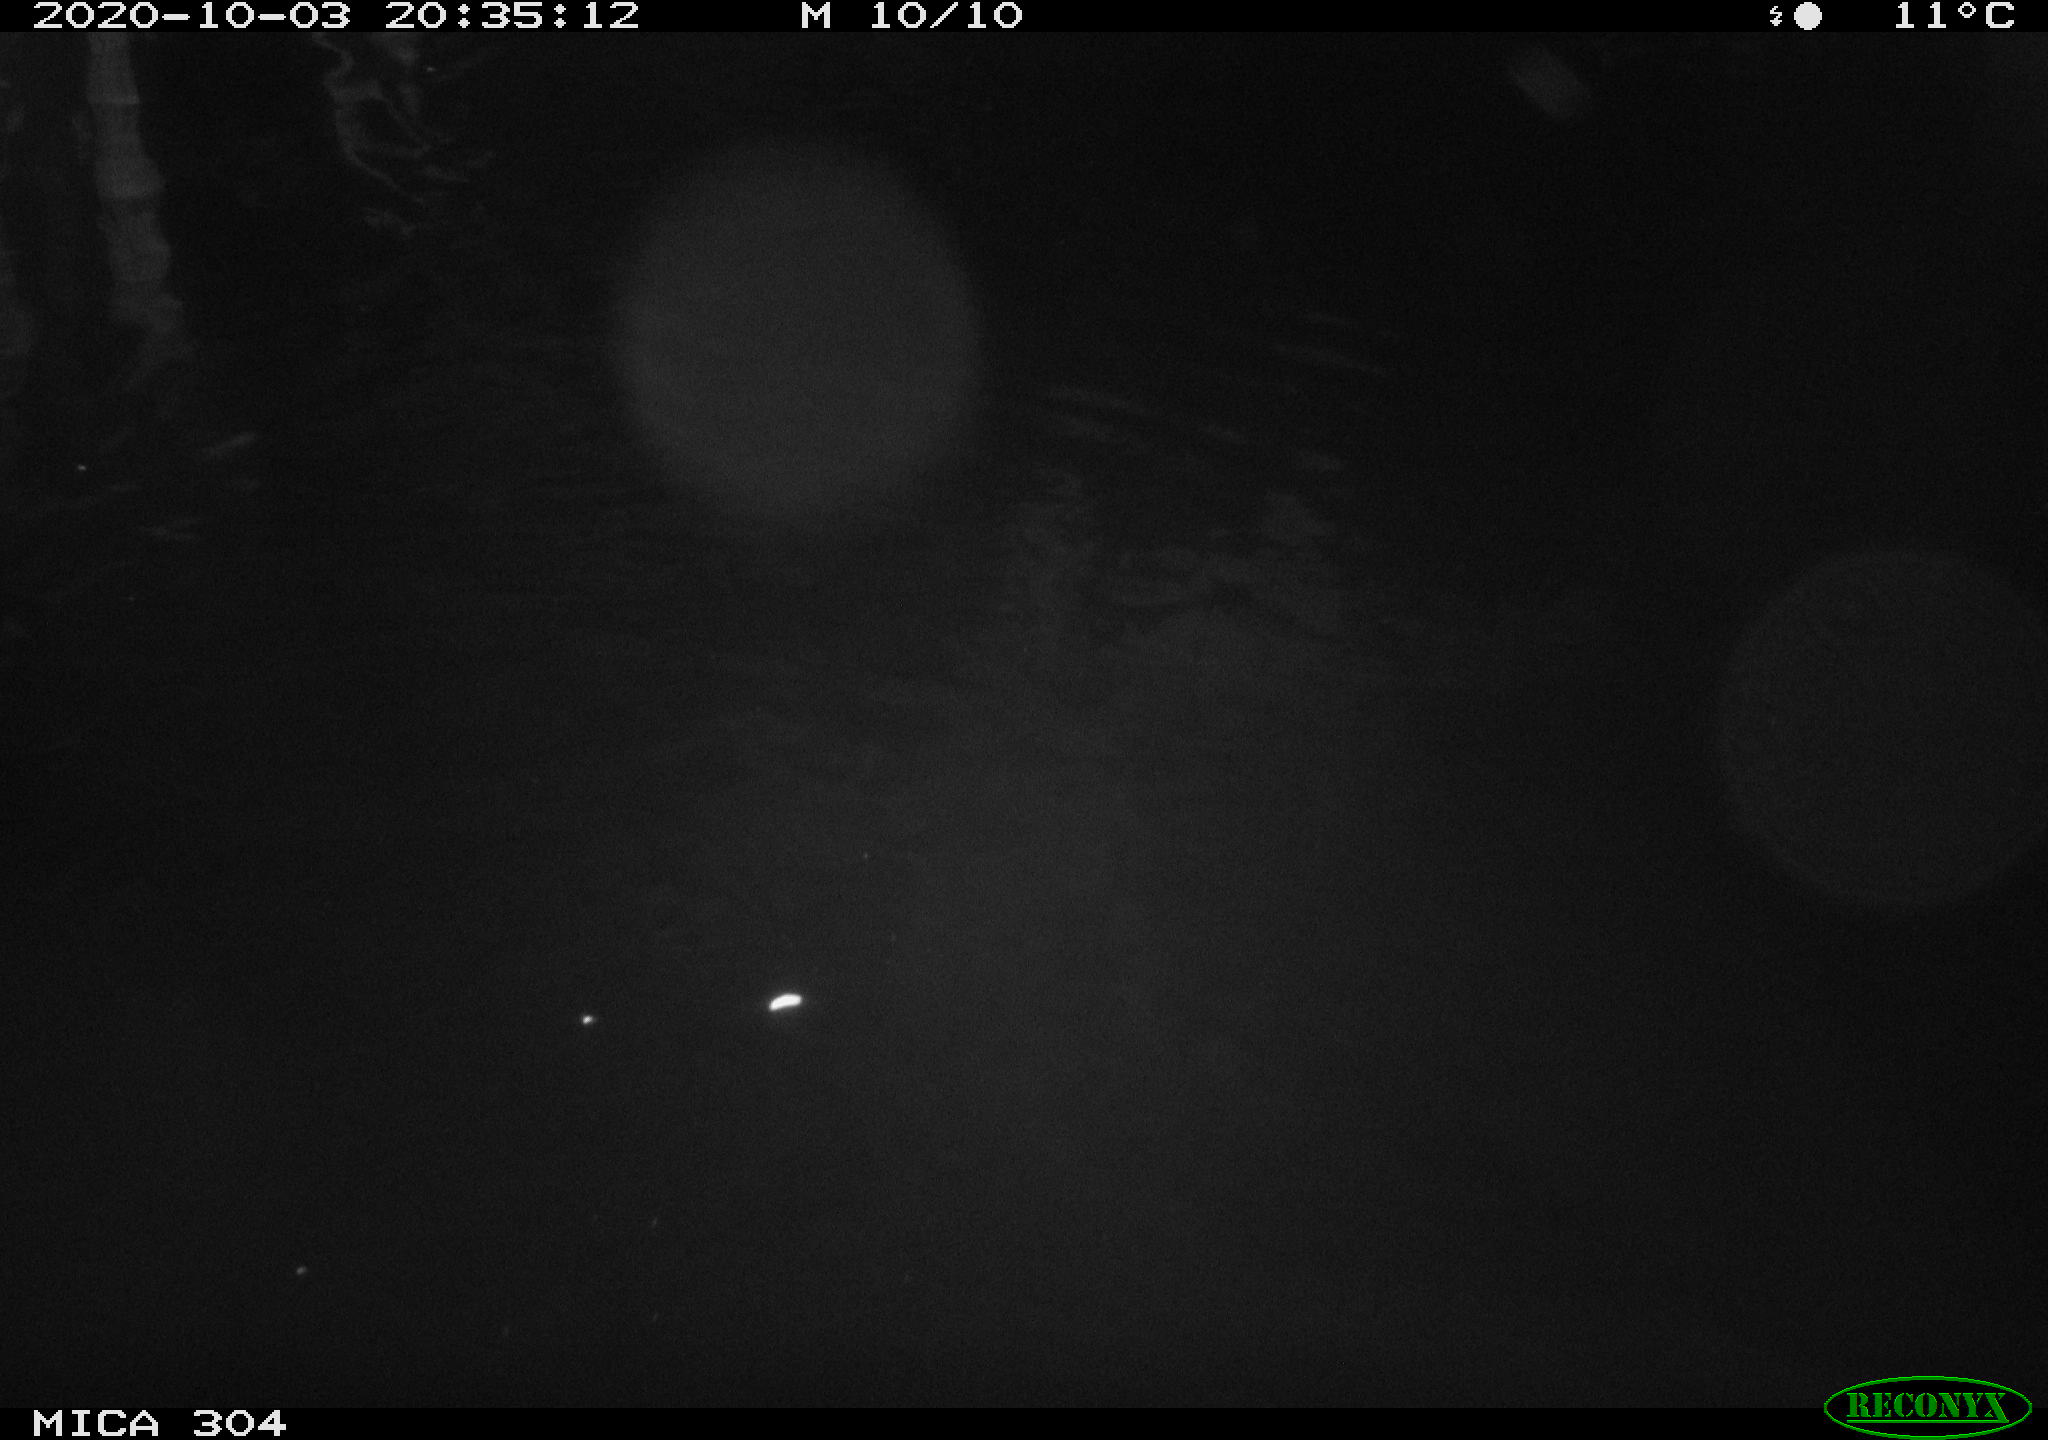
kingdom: Animalia
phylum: Chordata
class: Mammalia
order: Rodentia
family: Muridae
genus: Rattus
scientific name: Rattus norvegicus
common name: Brown rat
